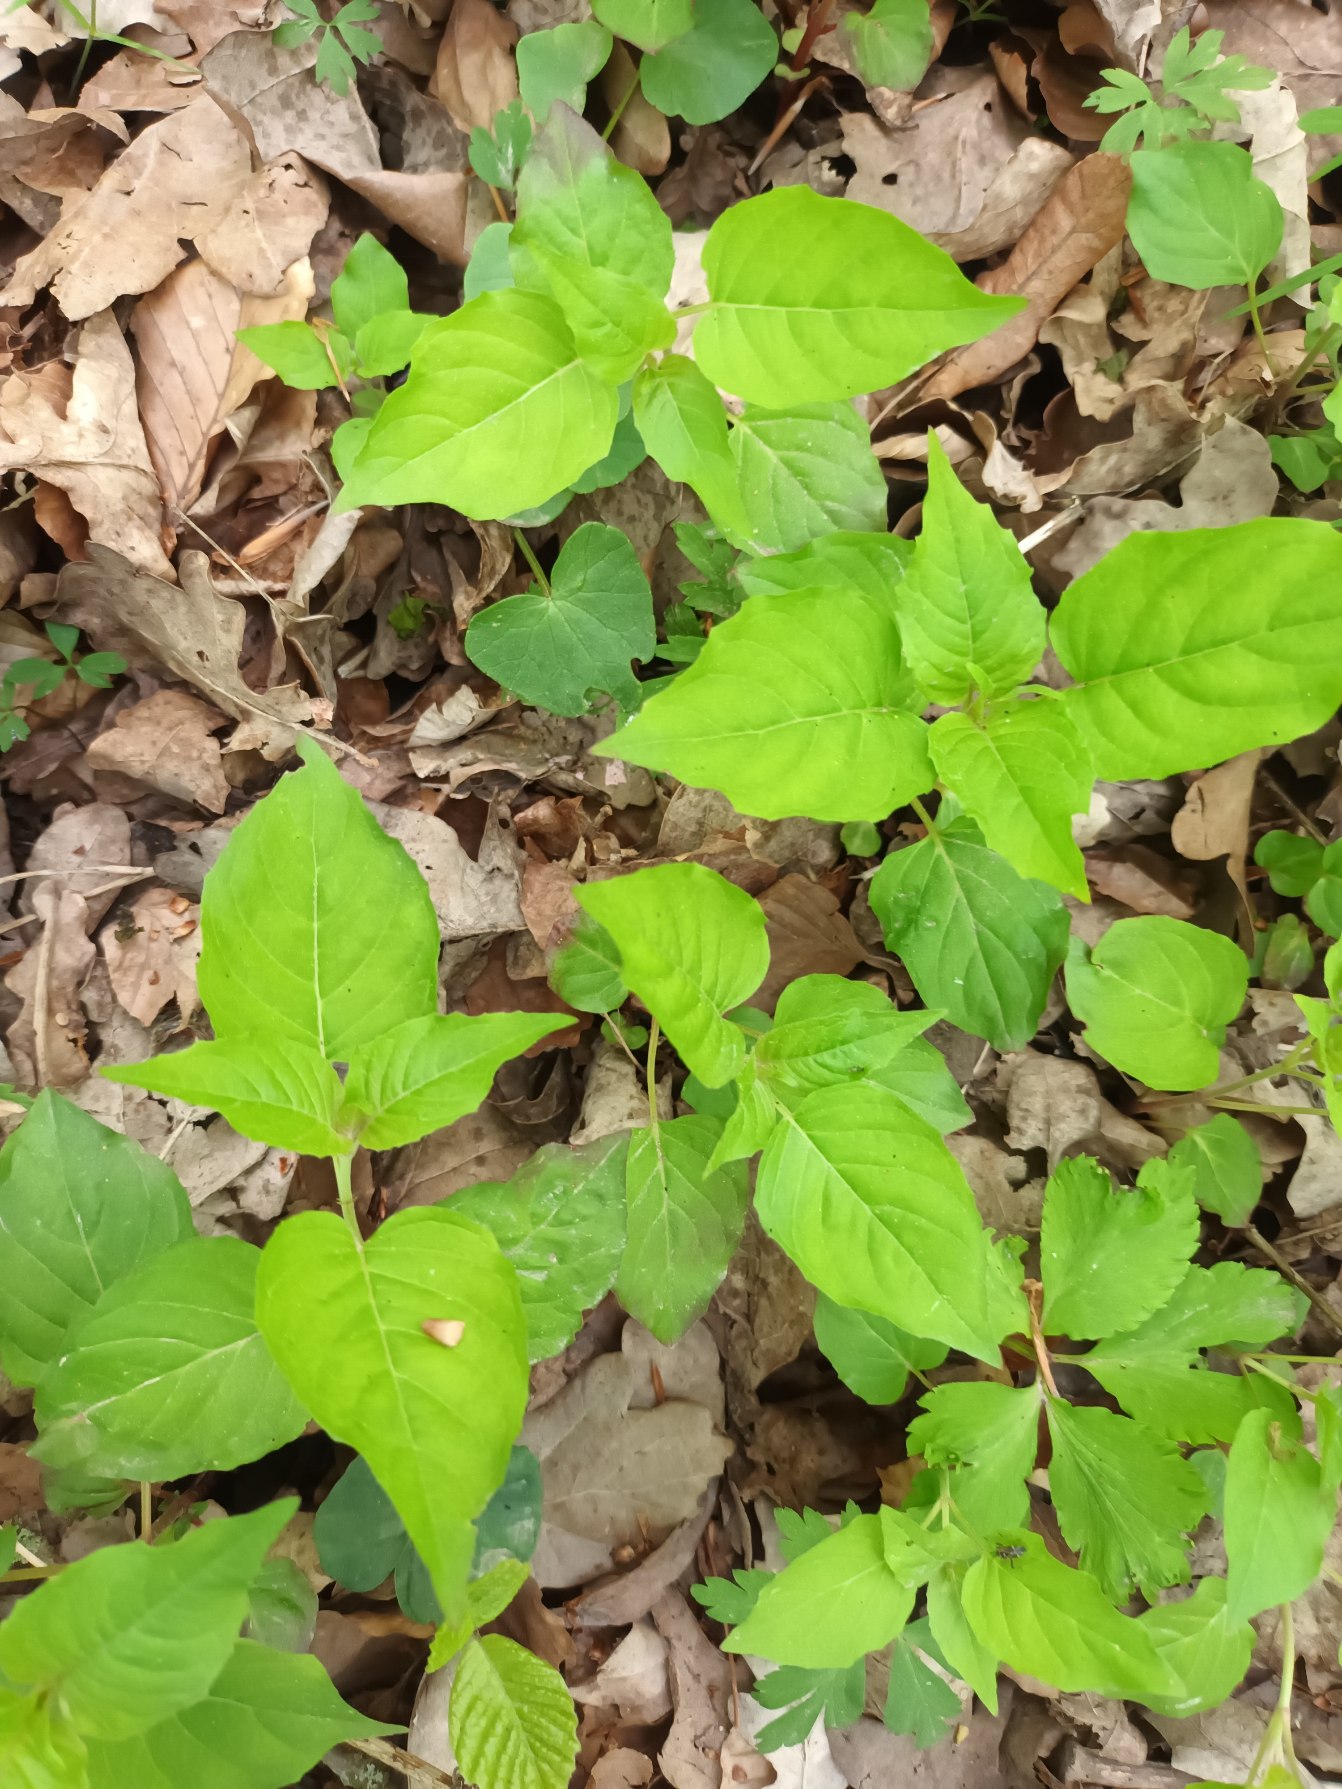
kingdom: Plantae
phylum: Tracheophyta
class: Magnoliopsida
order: Myrtales
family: Onagraceae
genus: Circaea
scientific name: Circaea lutetiana
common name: Dunet steffensurt
